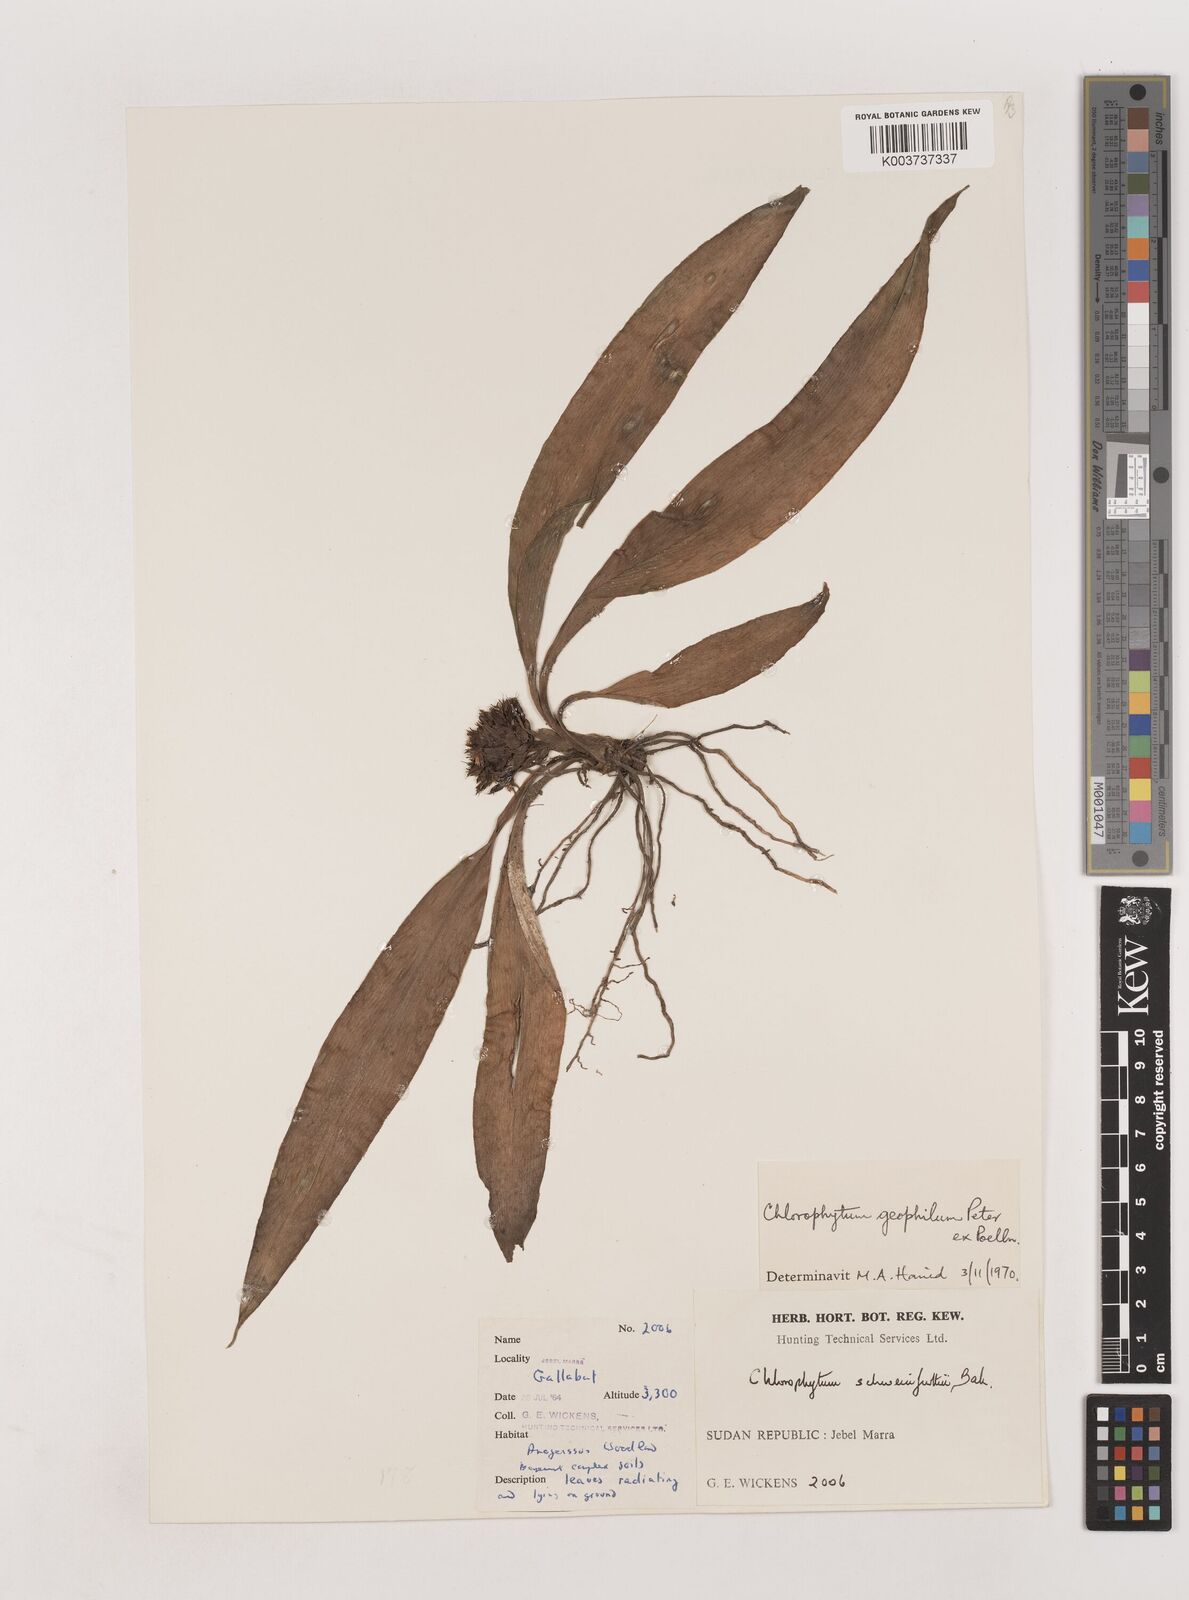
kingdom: Plantae
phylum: Tracheophyta
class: Liliopsida
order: Asparagales
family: Asparagaceae
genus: Chlorophytum
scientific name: Chlorophytum geophilum
